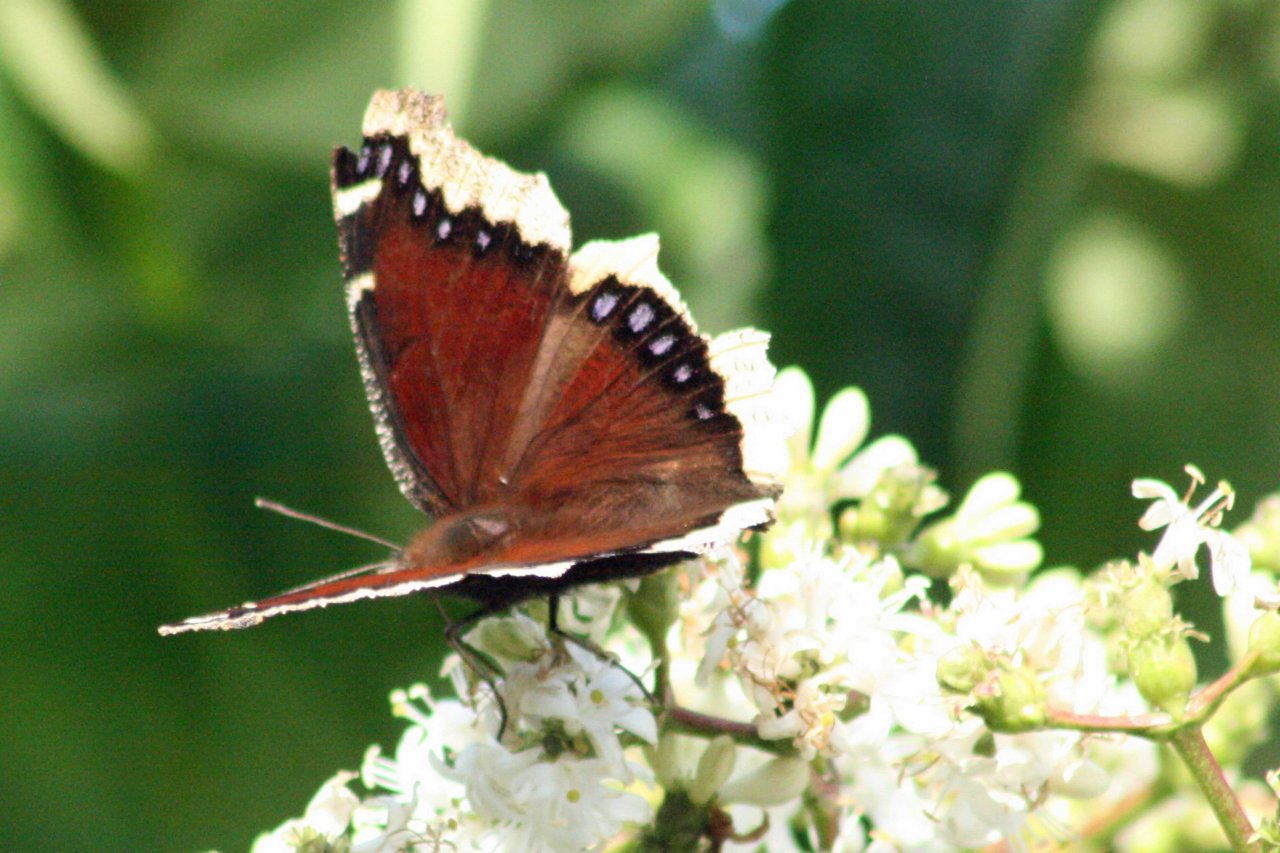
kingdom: Animalia
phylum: Arthropoda
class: Insecta
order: Lepidoptera
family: Nymphalidae
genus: Nymphalis
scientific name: Nymphalis antiopa
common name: Mourning Cloak
